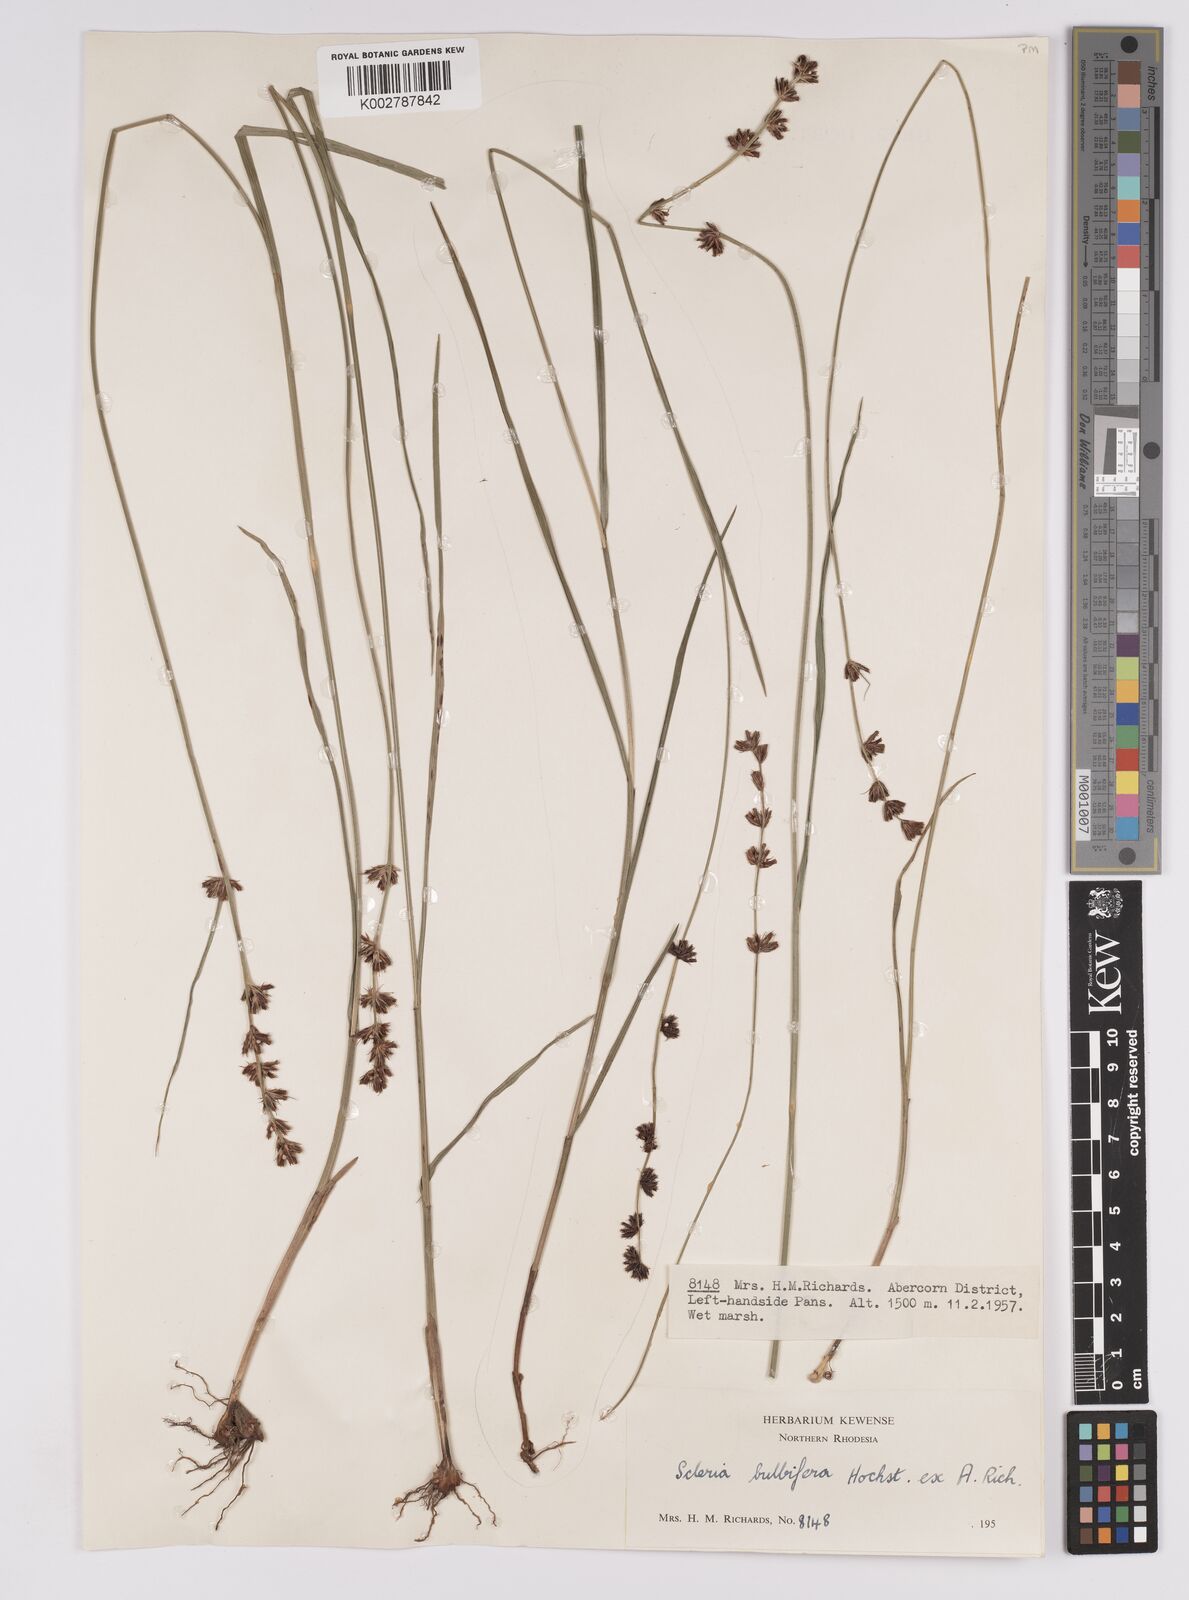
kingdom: Plantae
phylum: Tracheophyta
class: Liliopsida
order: Poales
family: Cyperaceae
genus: Scleria
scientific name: Scleria bulbifera
